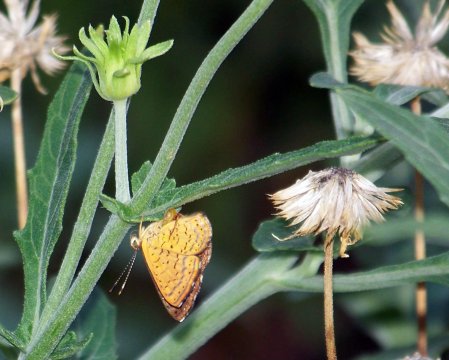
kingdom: Animalia
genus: Calephelis
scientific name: Calephelis nemesis
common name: Fatal Metalmark
